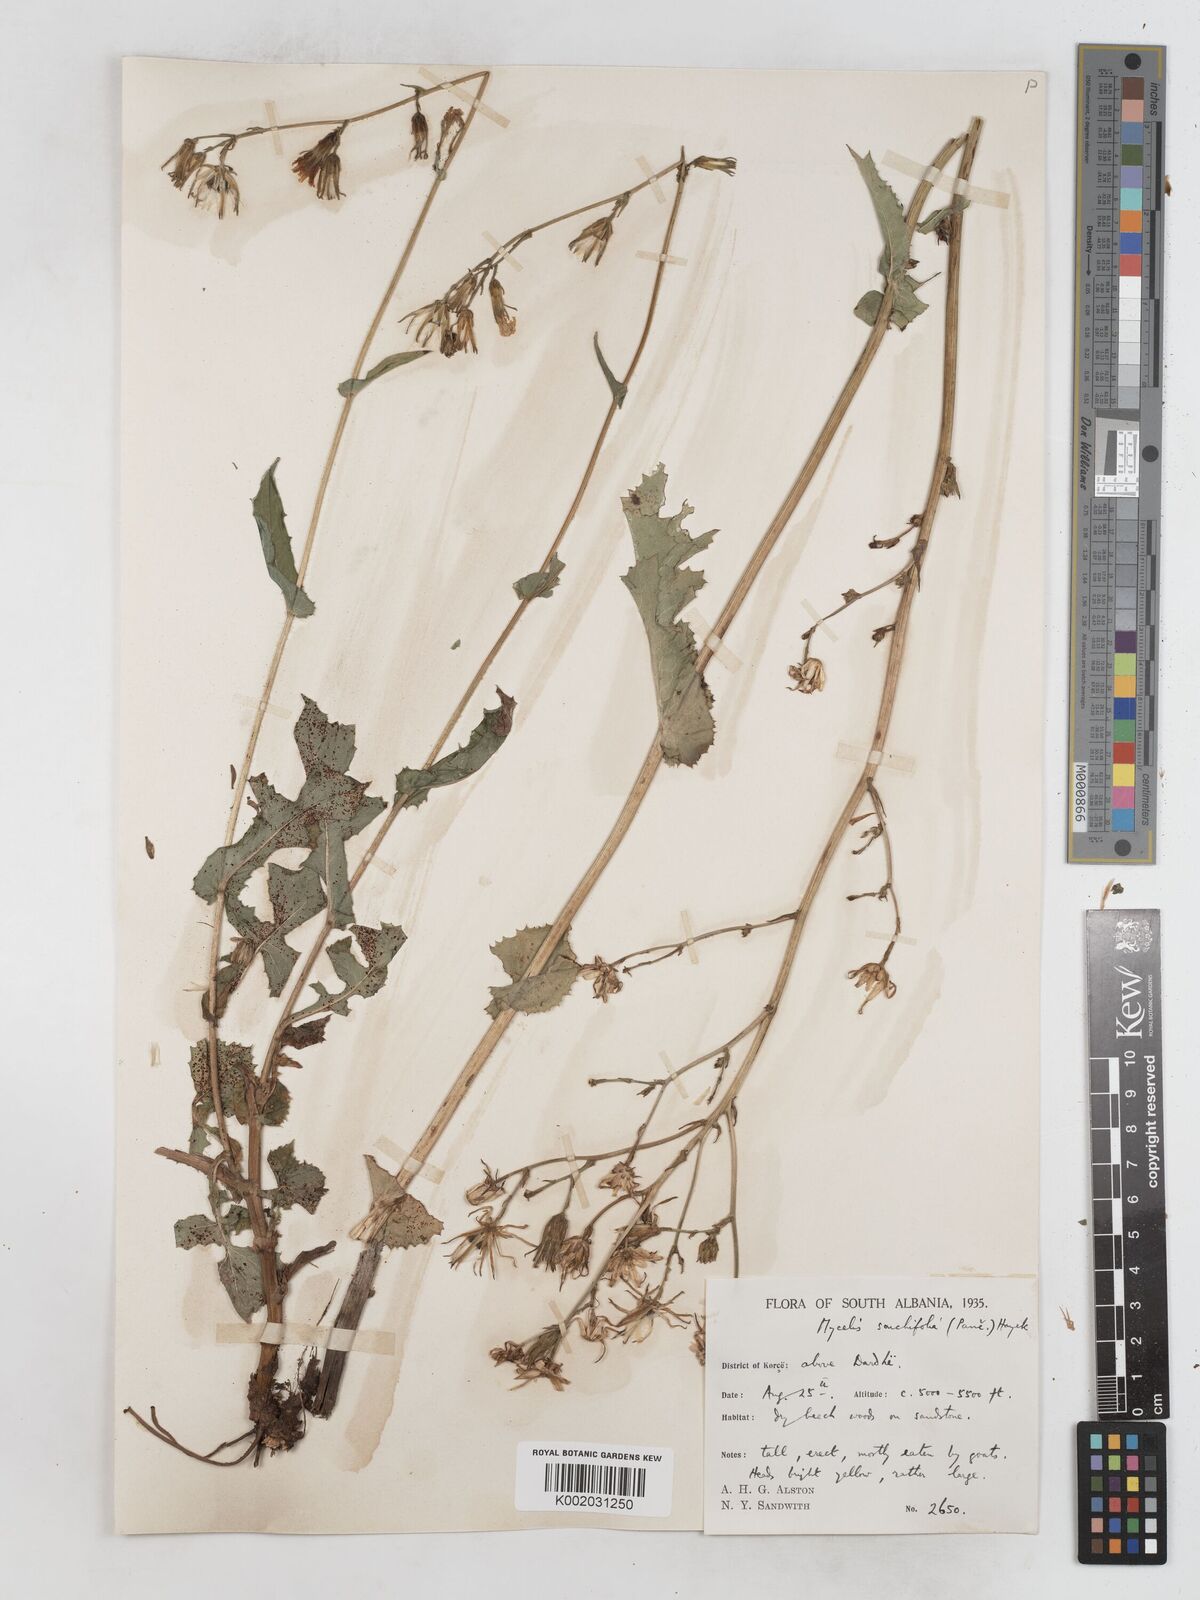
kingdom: Plantae
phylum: Tracheophyta
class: Magnoliopsida
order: Asterales
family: Asteraceae
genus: Lactuca
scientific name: Lactuca sonchifolia
